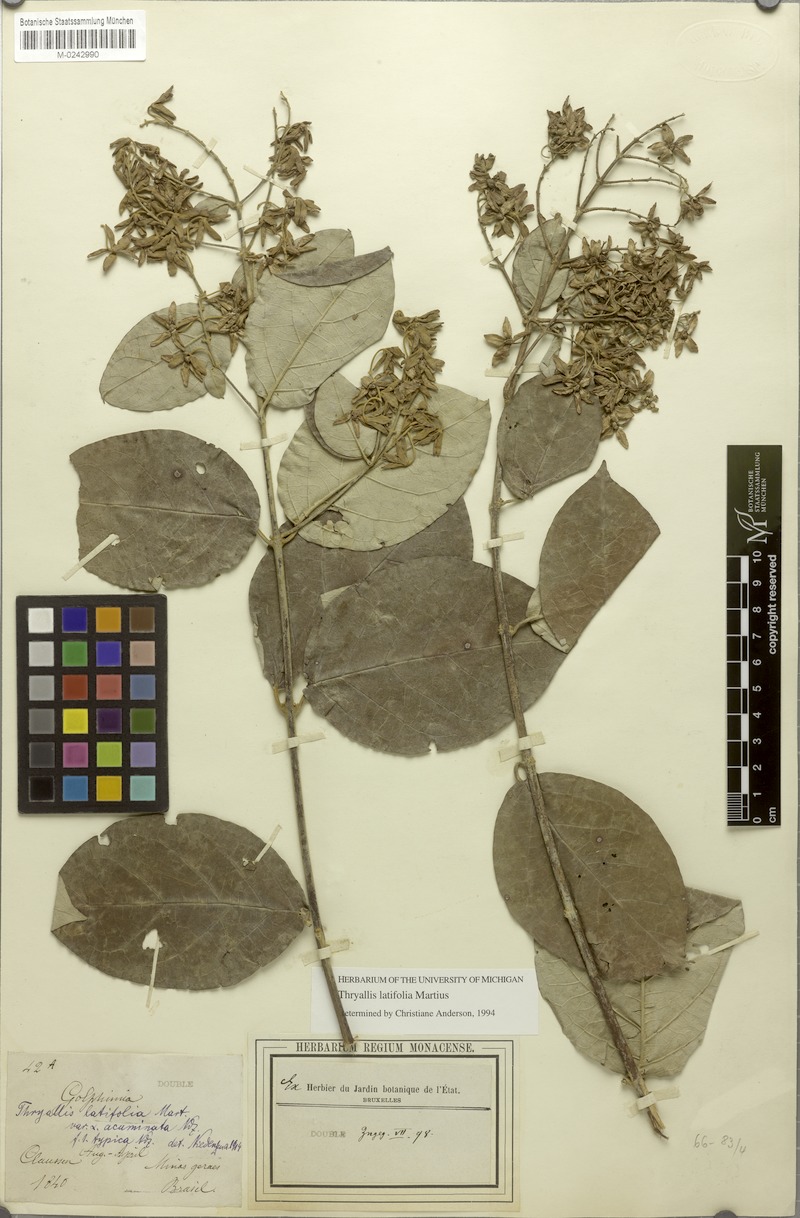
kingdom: Plantae
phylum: Tracheophyta
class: Magnoliopsida
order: Malpighiales
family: Malpighiaceae
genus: Thryallis
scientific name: Thryallis latifolia
